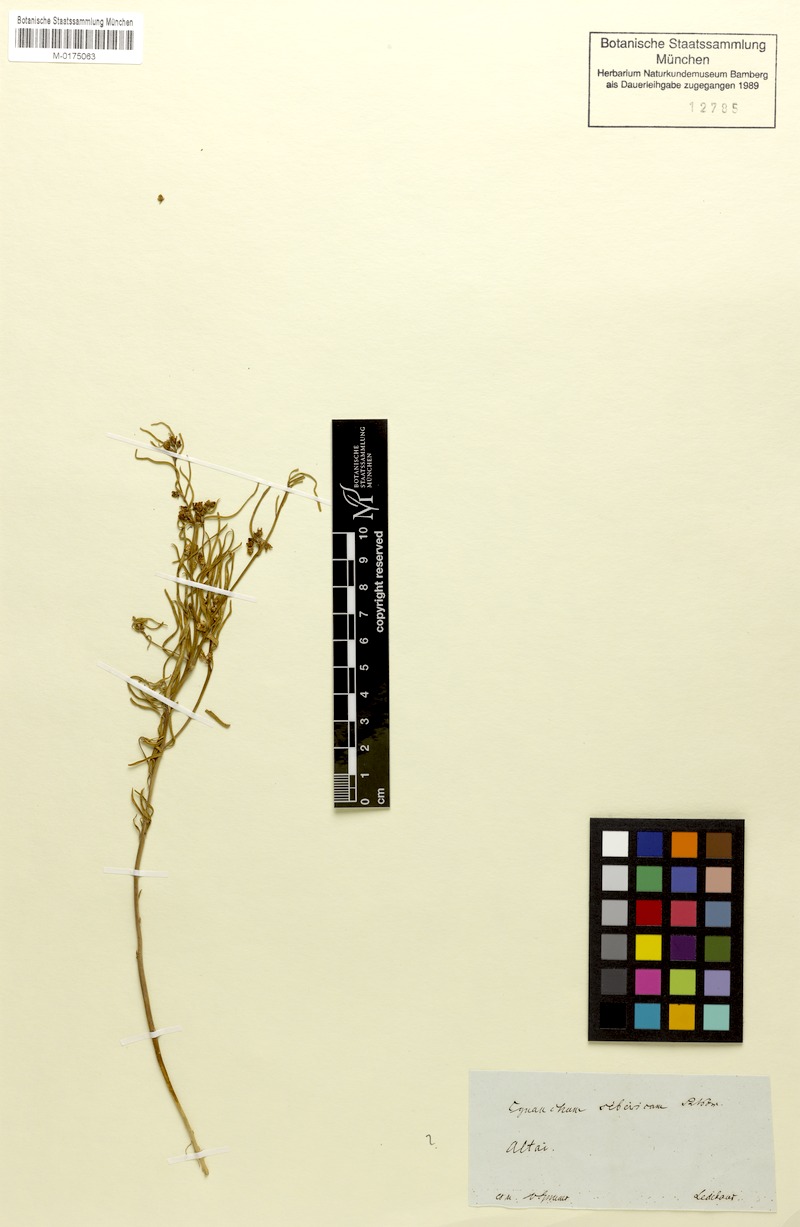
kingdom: Plantae
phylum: Tracheophyta
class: Magnoliopsida
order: Gentianales
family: Apocynaceae
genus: Cynanchum
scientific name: Cynanchum thesioides
